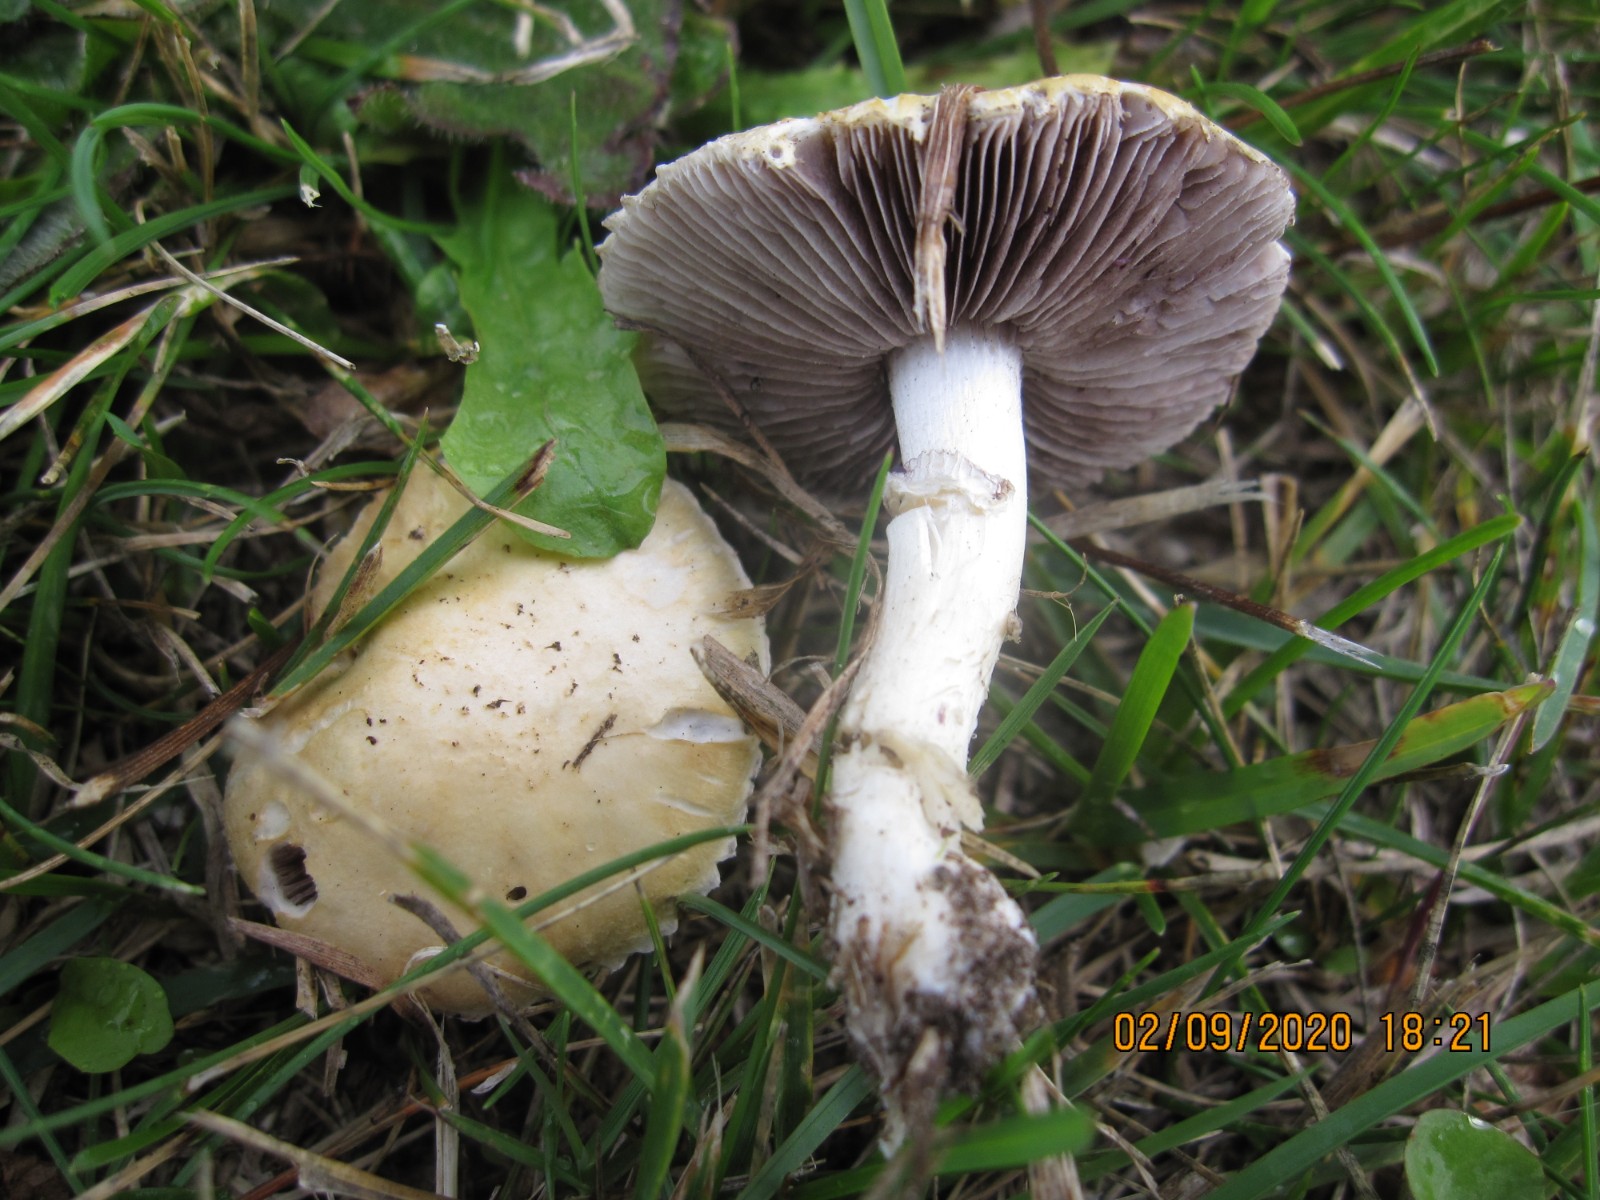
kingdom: Fungi
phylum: Basidiomycota
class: Agaricomycetes
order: Agaricales
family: Hymenogastraceae
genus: Psilocybe
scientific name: Psilocybe coronilla
